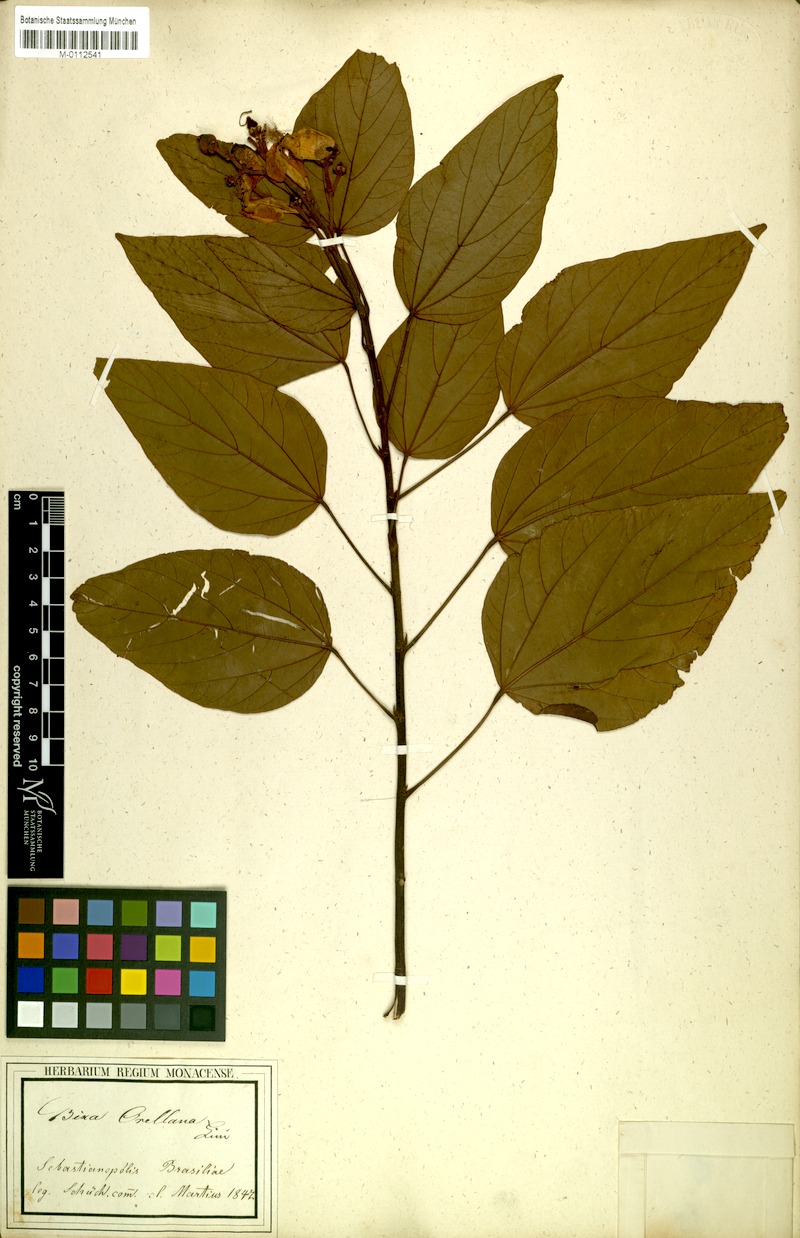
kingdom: Plantae
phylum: Tracheophyta
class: Magnoliopsida
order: Malvales
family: Bixaceae
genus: Bixa
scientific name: Bixa orellana
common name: Lipsticktree
